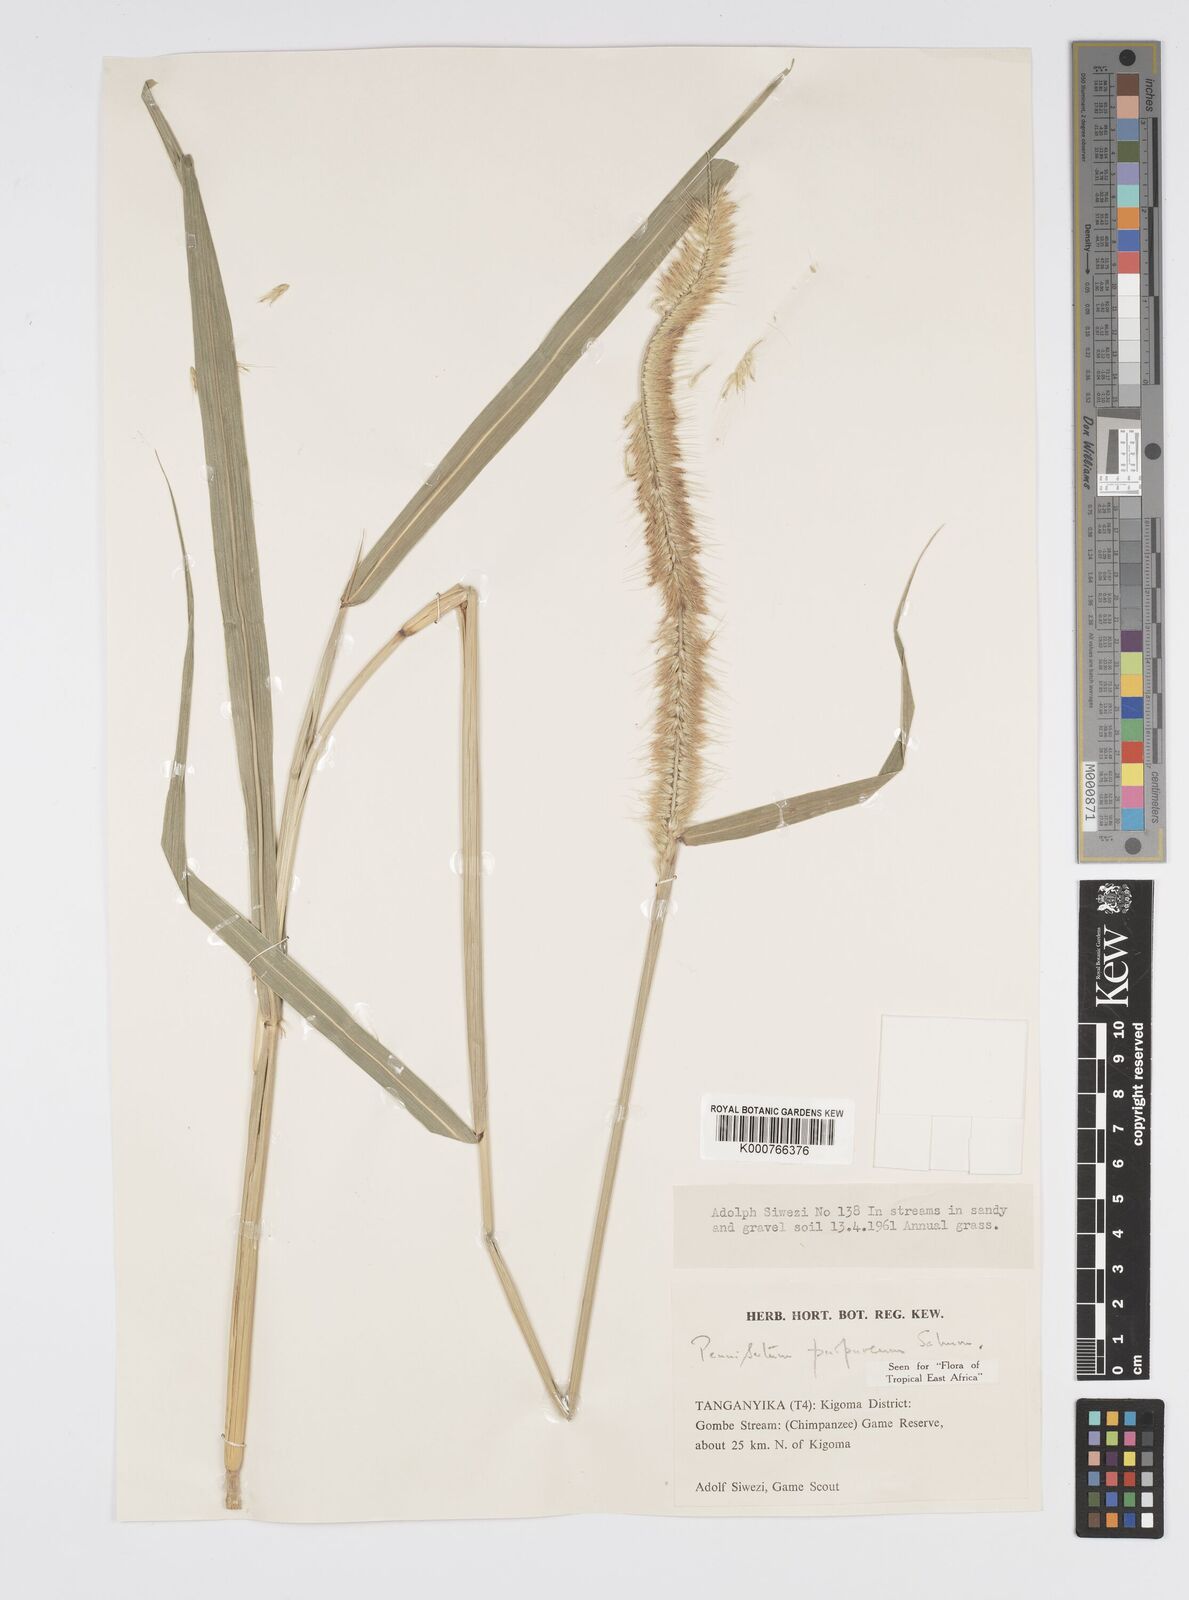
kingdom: Plantae
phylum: Tracheophyta
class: Liliopsida
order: Poales
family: Poaceae
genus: Cenchrus
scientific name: Cenchrus purpureus
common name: Elephant grass
